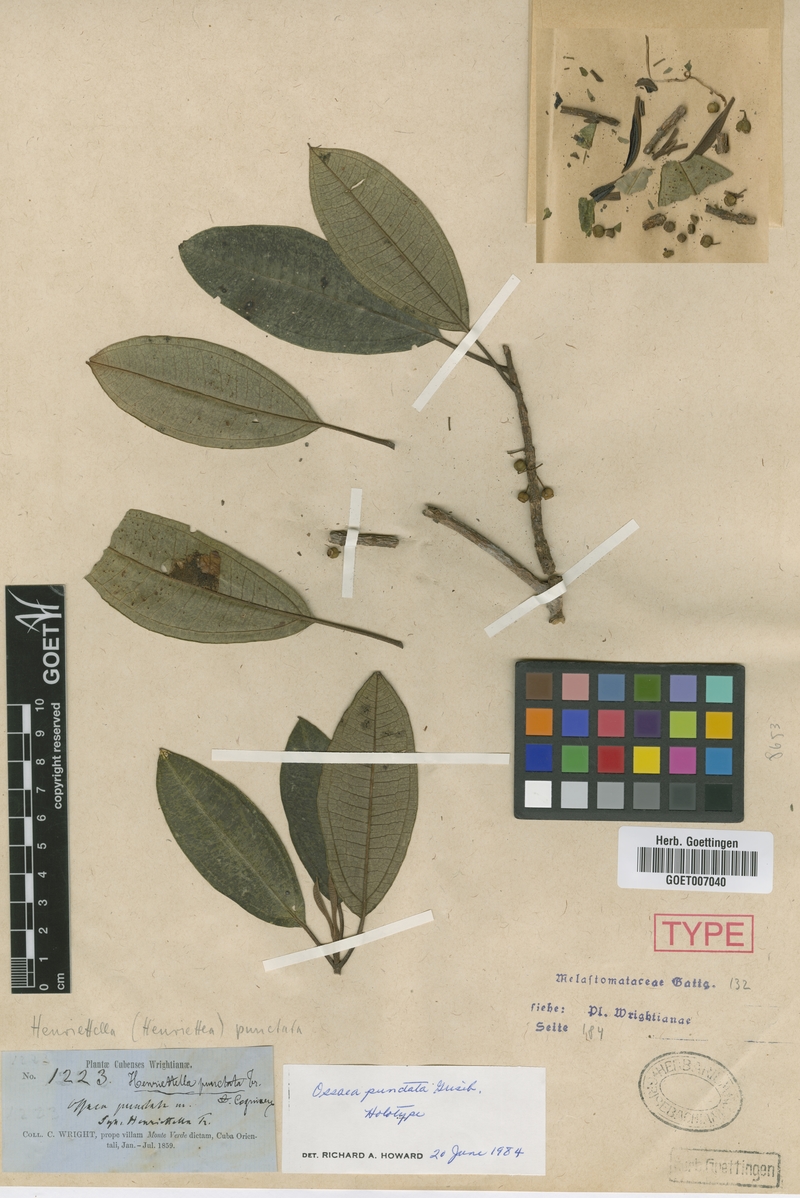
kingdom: Plantae
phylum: Tracheophyta
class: Magnoliopsida
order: Myrtales
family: Melastomataceae
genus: Henriettea
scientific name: Henriettea punctata
